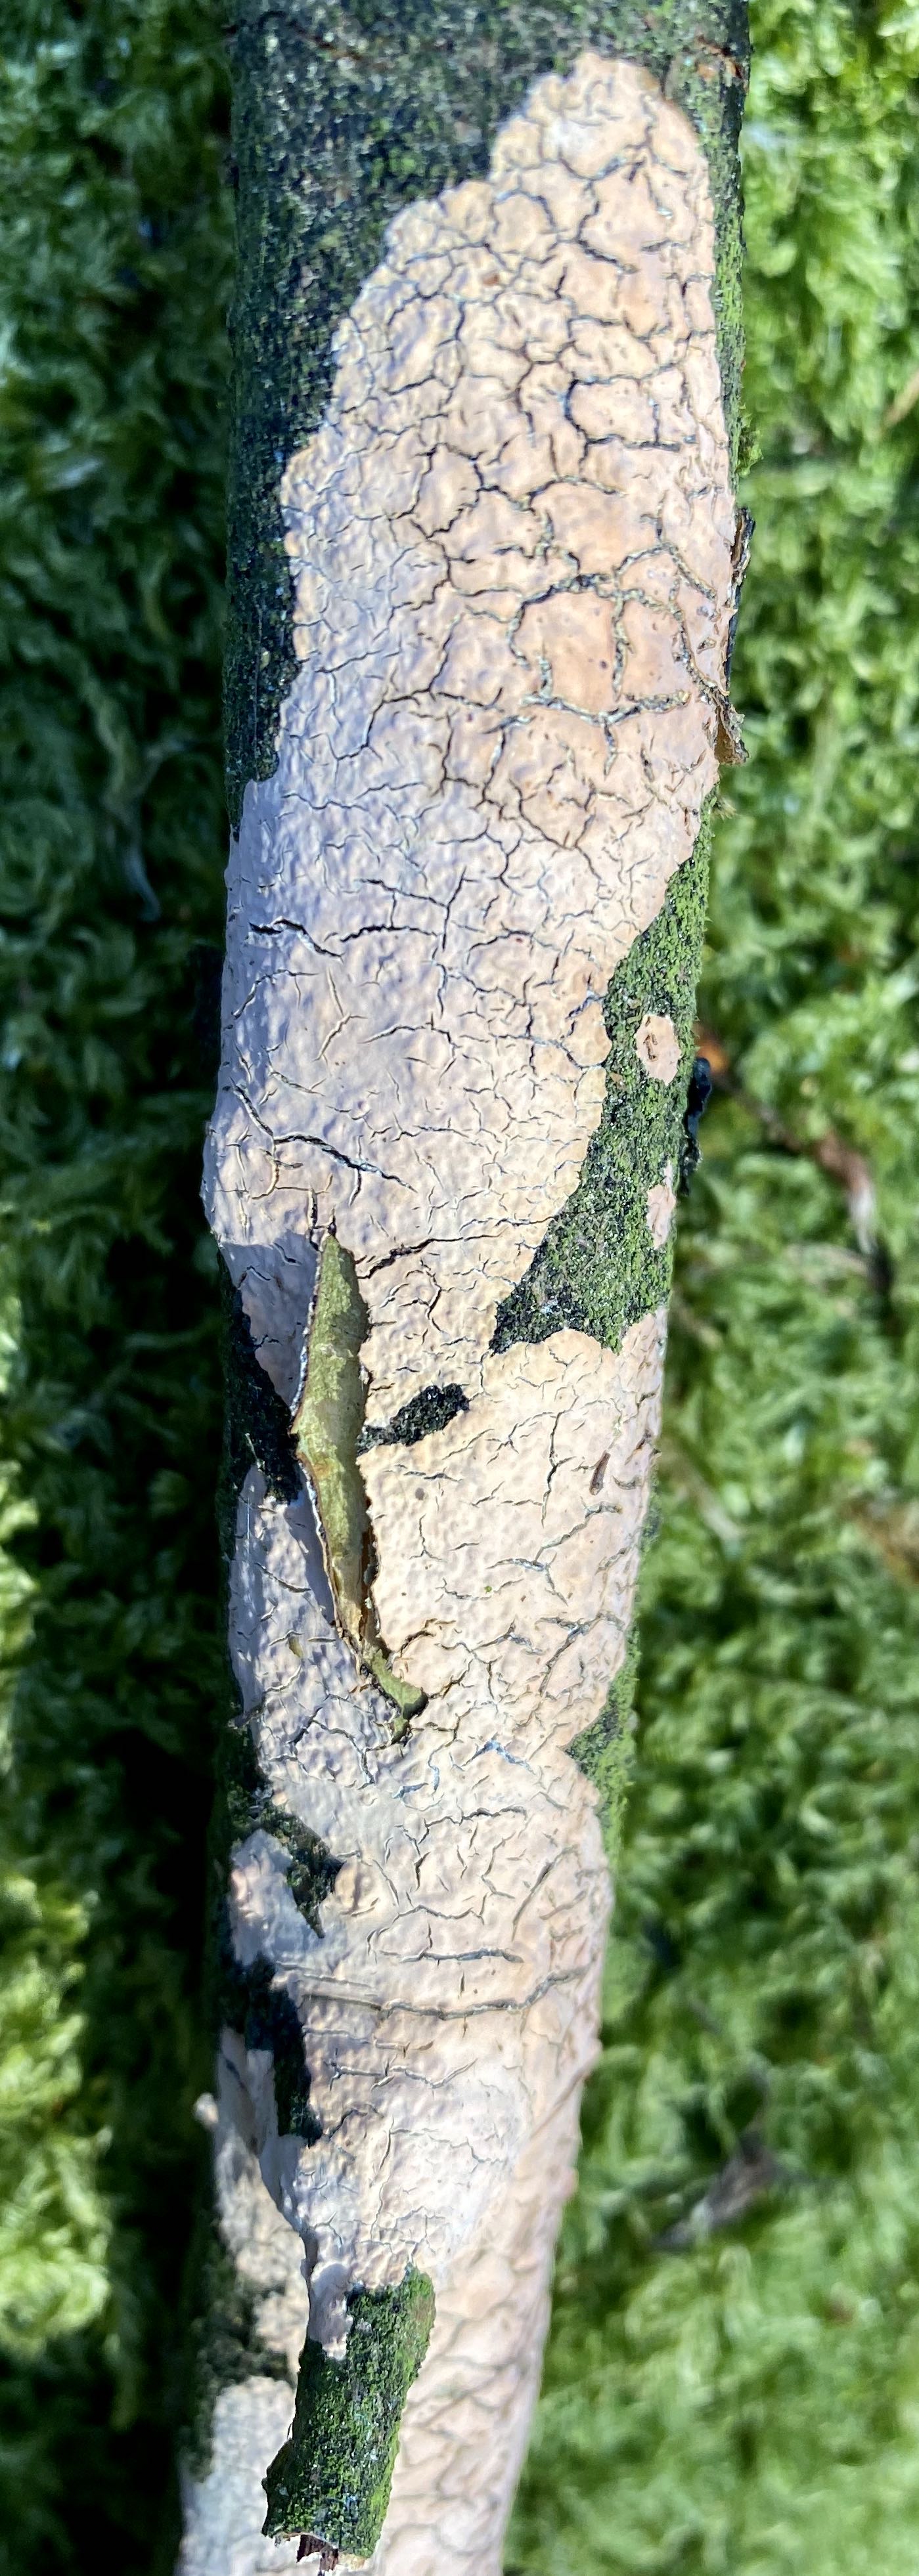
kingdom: Fungi
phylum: Basidiomycota
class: Agaricomycetes
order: Agaricales
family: Physalacriaceae
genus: Cylindrobasidium
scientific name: Cylindrobasidium evolvens
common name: sprækkehinde
